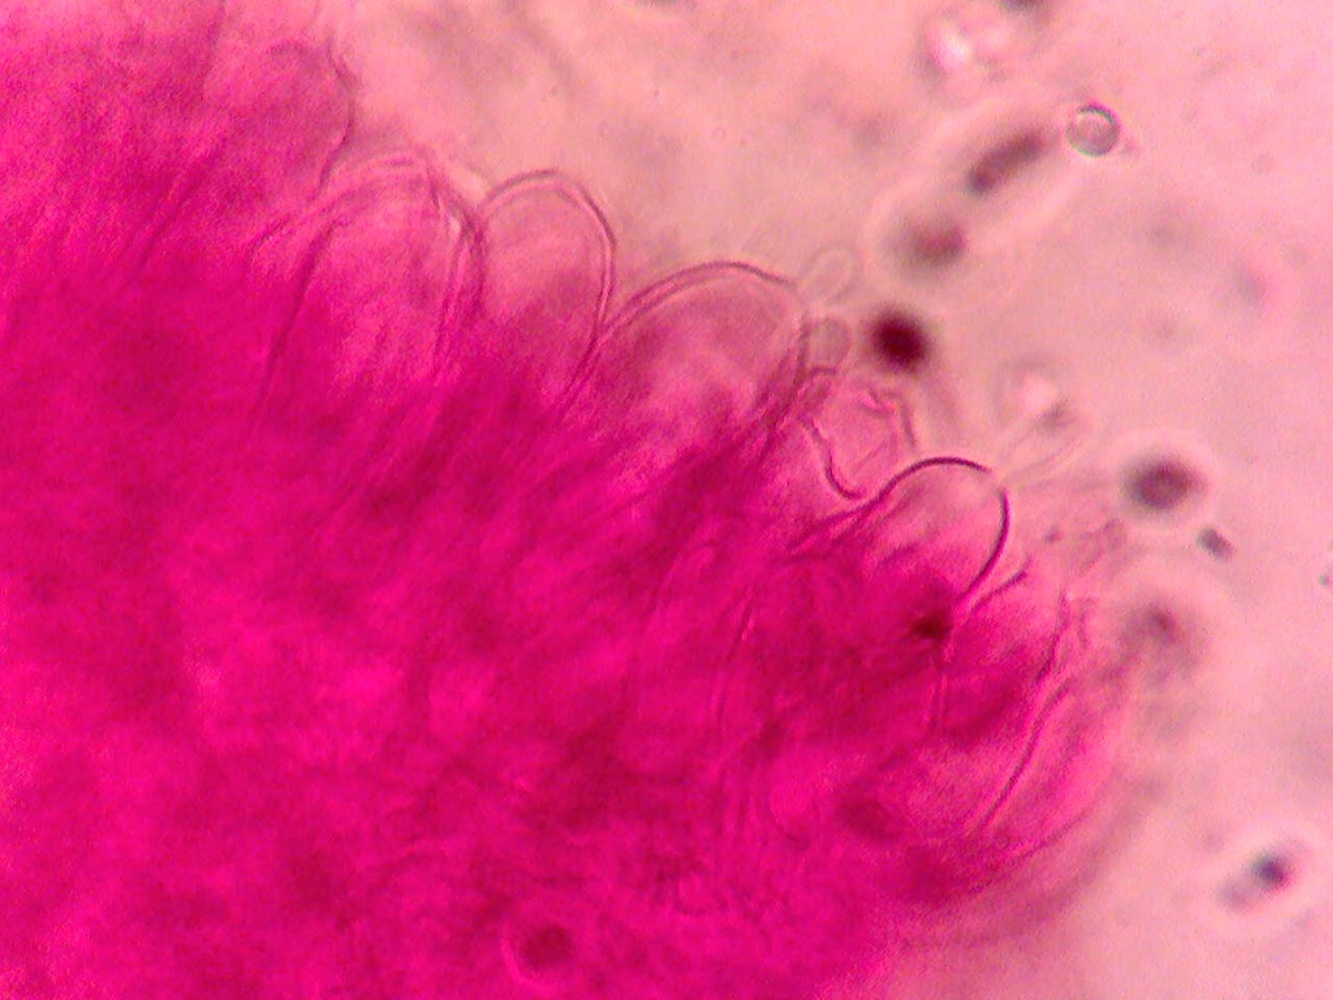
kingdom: Fungi
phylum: Basidiomycota
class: Agaricomycetes
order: Agaricales
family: Mycenaceae
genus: Mycena
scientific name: Mycena zephirus
